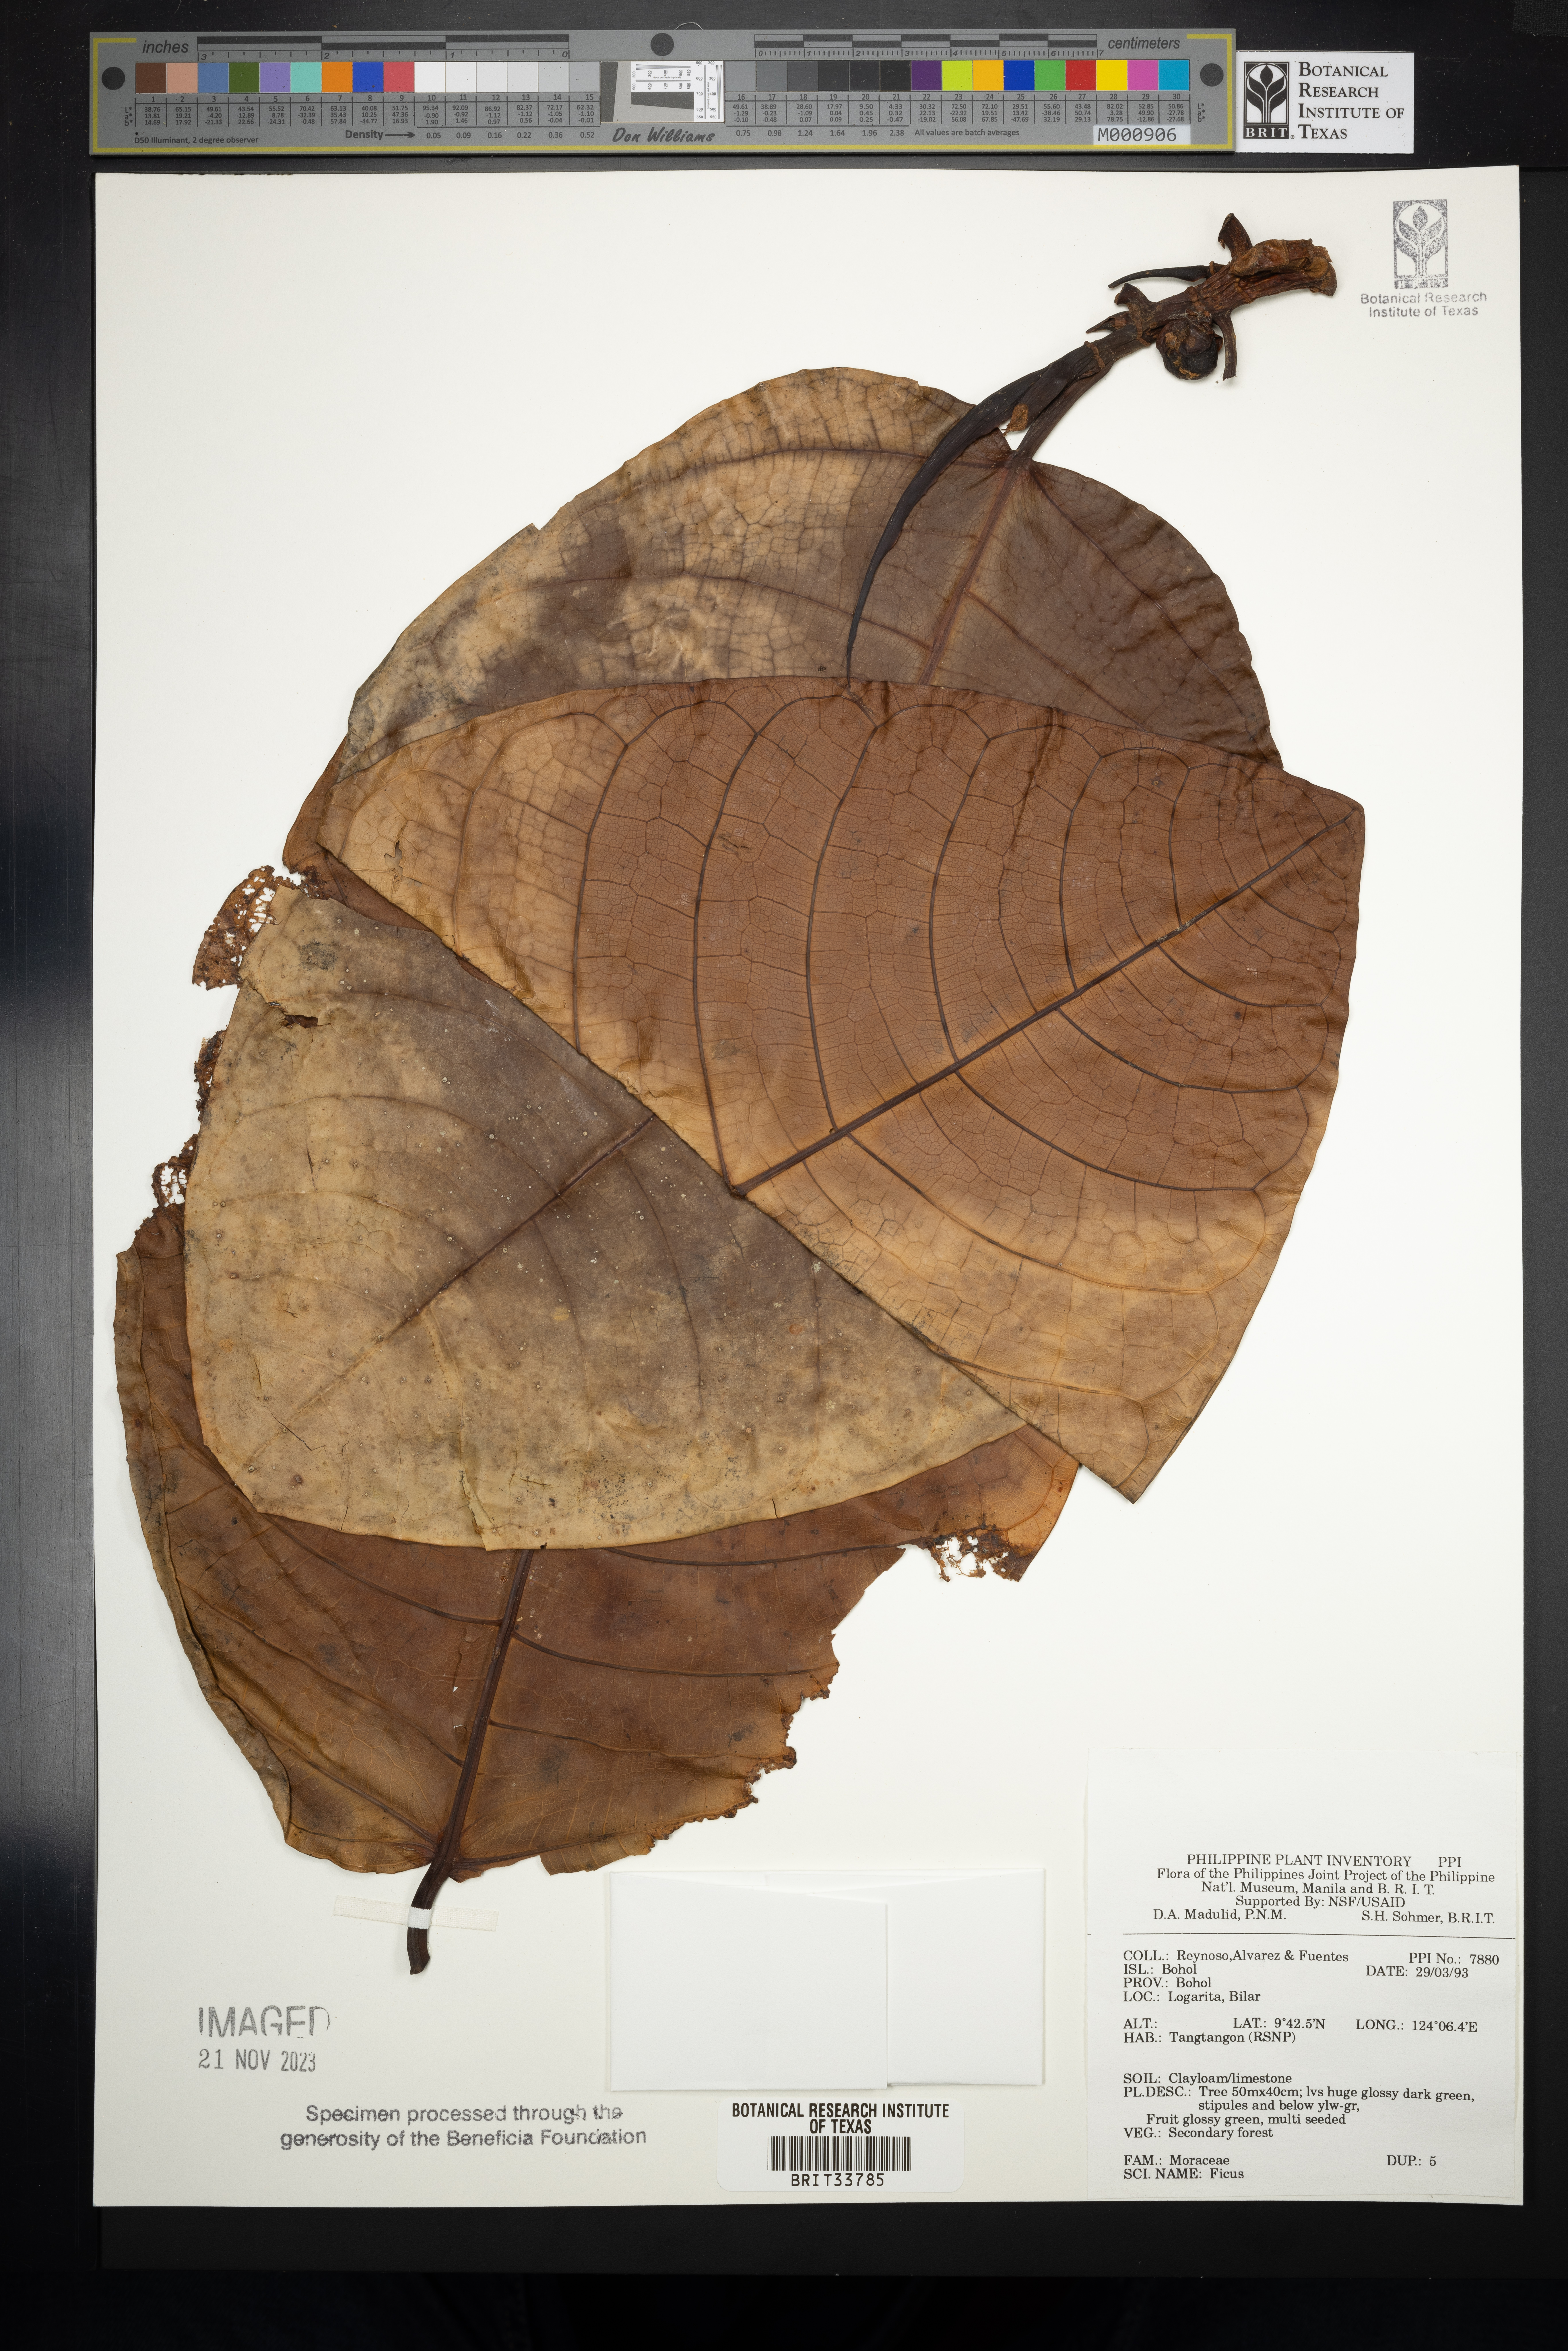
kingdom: Plantae
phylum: Tracheophyta
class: Magnoliopsida
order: Rosales
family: Moraceae
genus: Ficus
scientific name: Ficus
